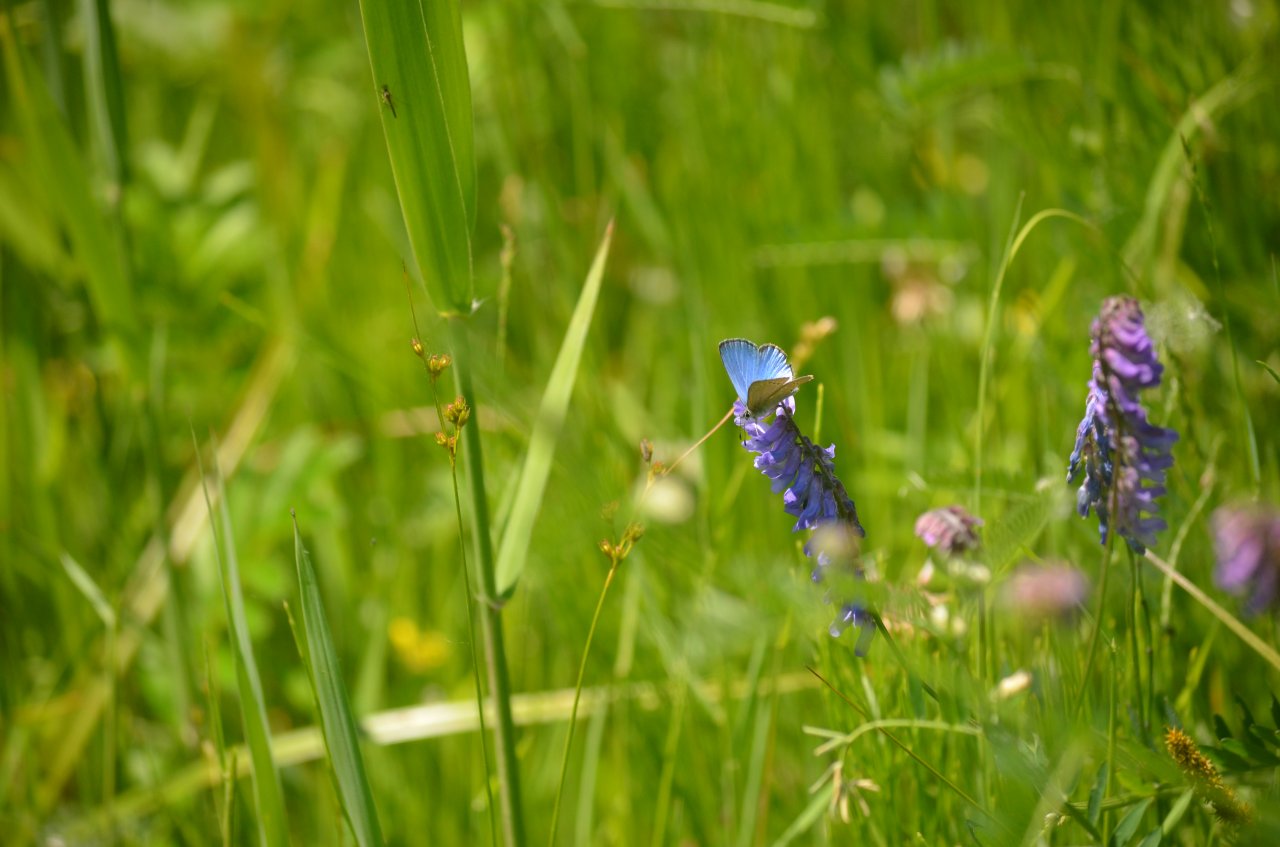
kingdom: Animalia
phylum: Arthropoda
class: Insecta
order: Lepidoptera
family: Lycaenidae
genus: Glaucopsyche
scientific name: Glaucopsyche lygdamus
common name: Silvery Blue
